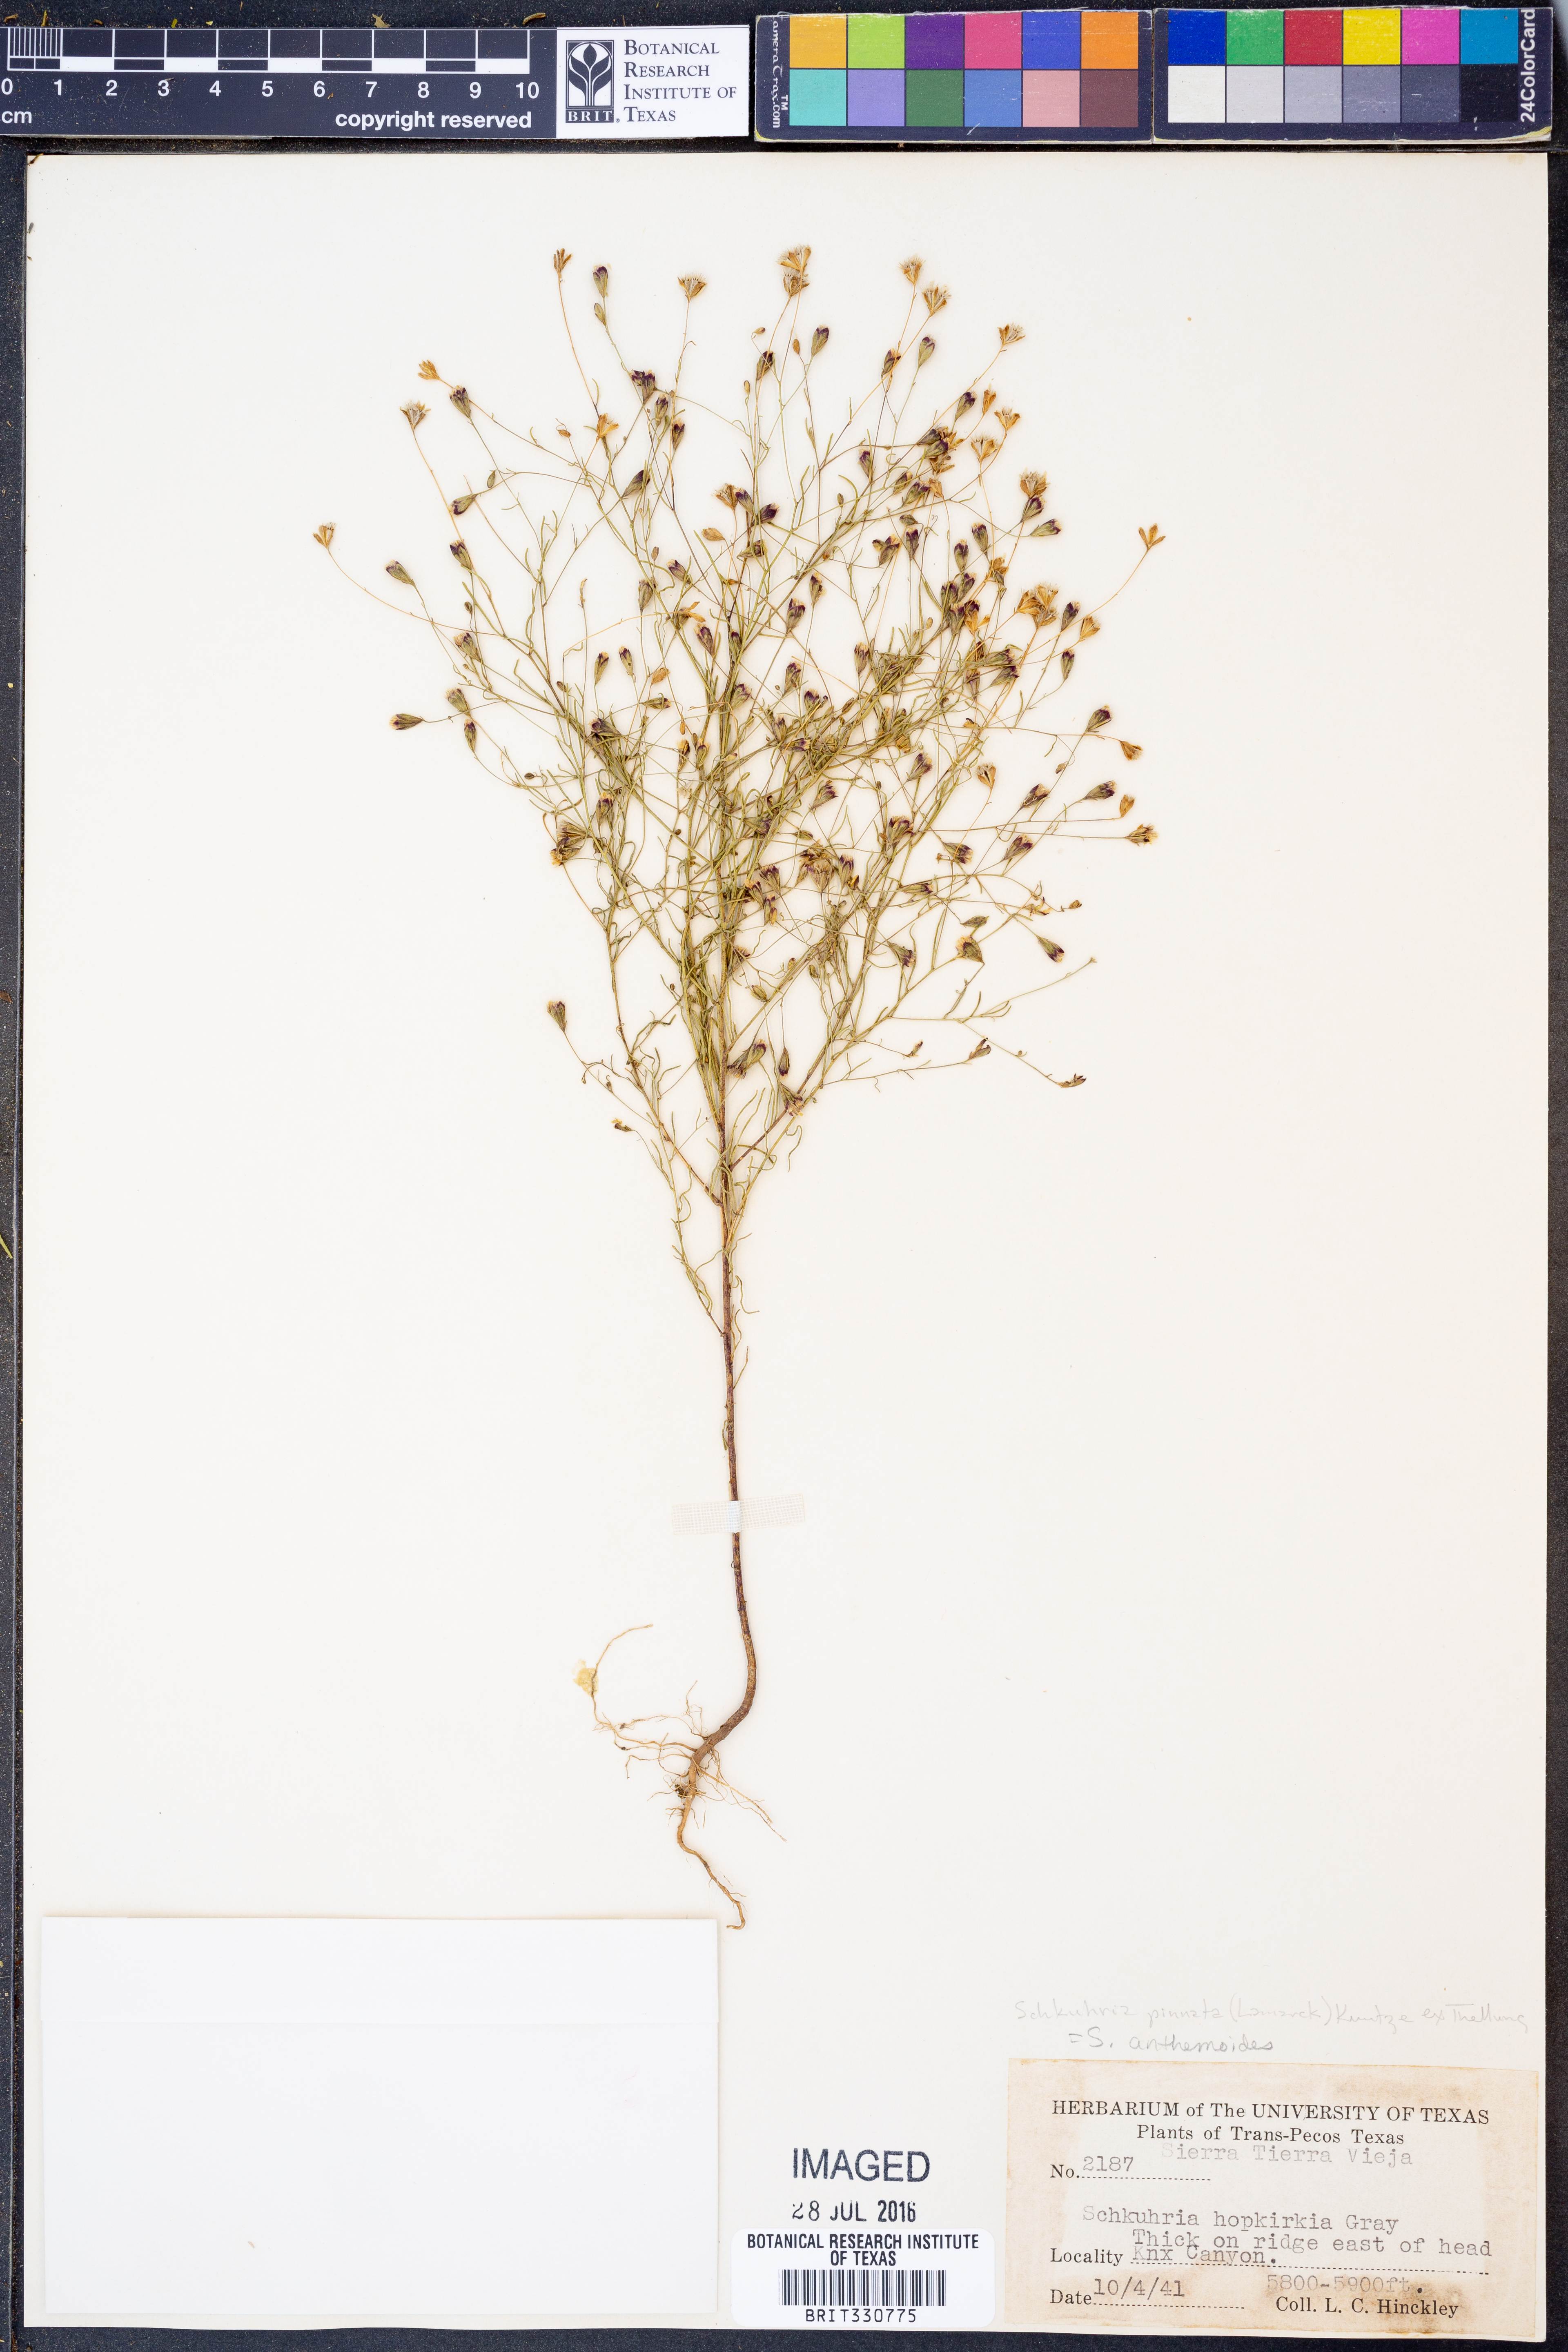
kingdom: Plantae
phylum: Tracheophyta
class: Magnoliopsida
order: Asterales
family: Asteraceae
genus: Schkuhria
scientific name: Schkuhria pinnata
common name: Dwarf marigold
